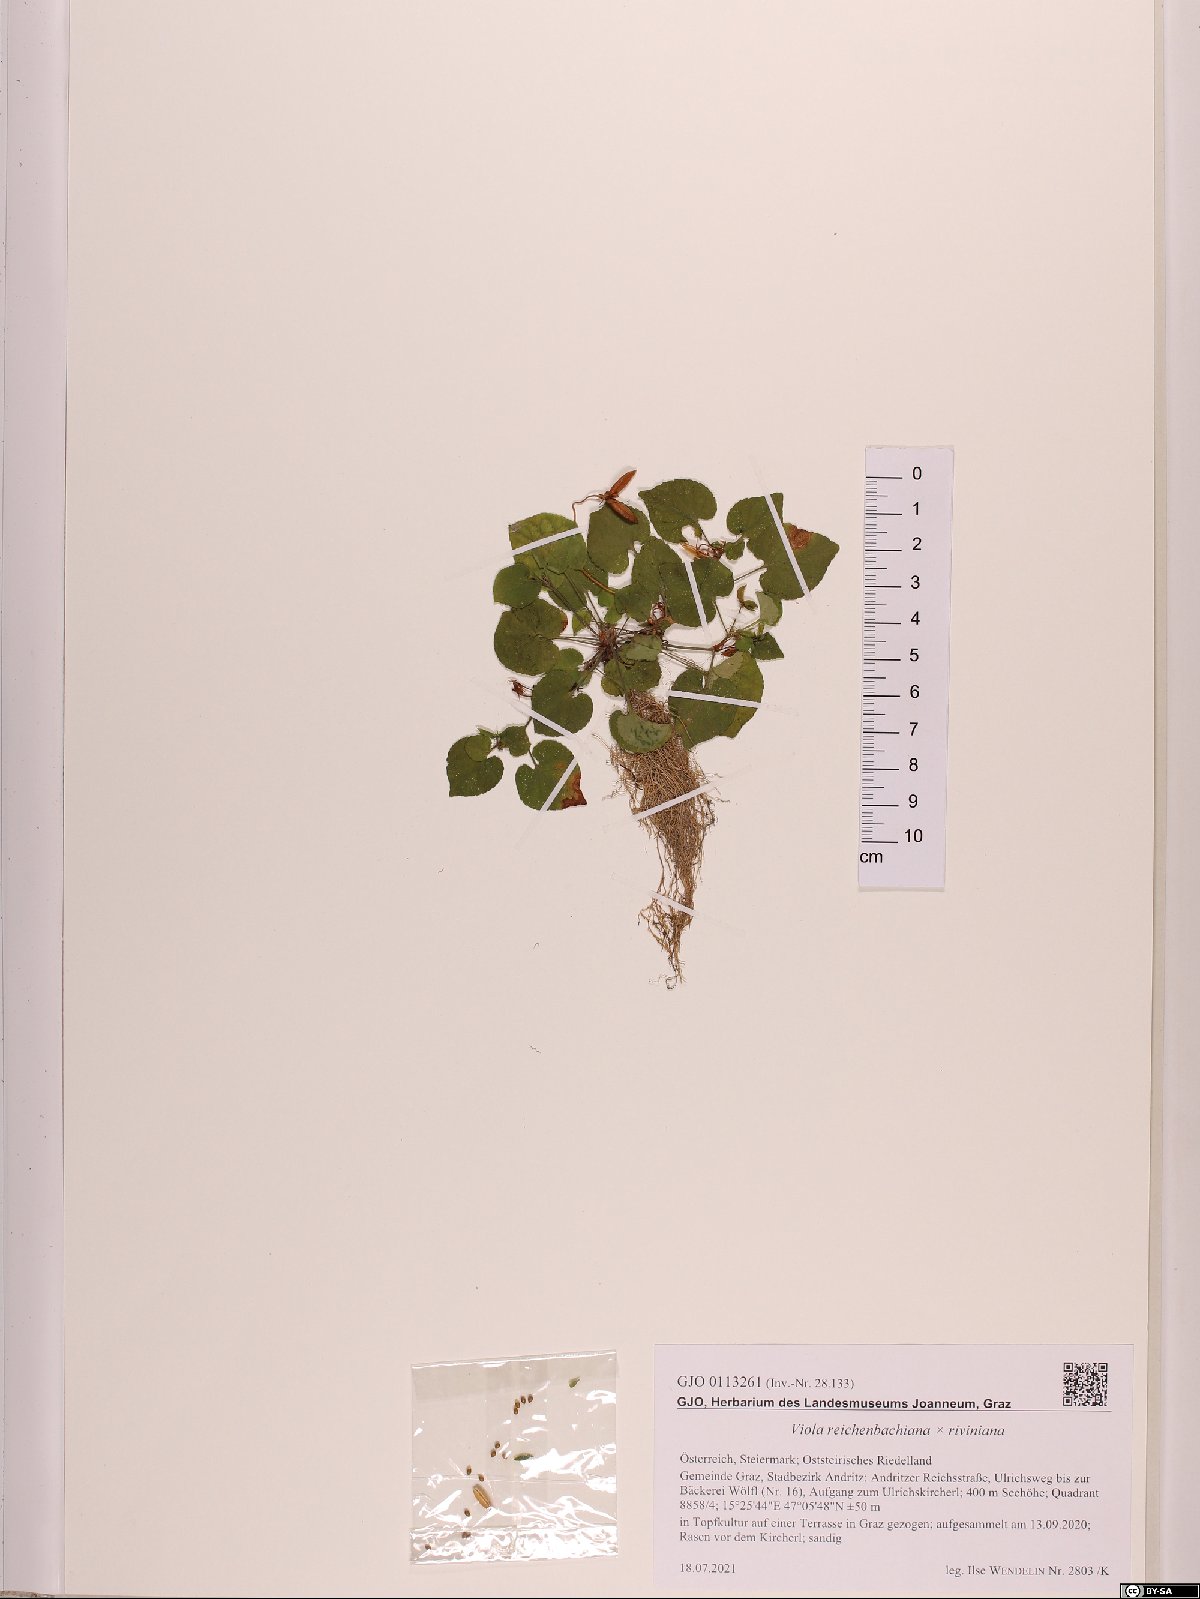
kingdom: Plantae
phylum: Tracheophyta
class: Magnoliopsida
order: Malpighiales
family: Violaceae
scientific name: Violaceae
